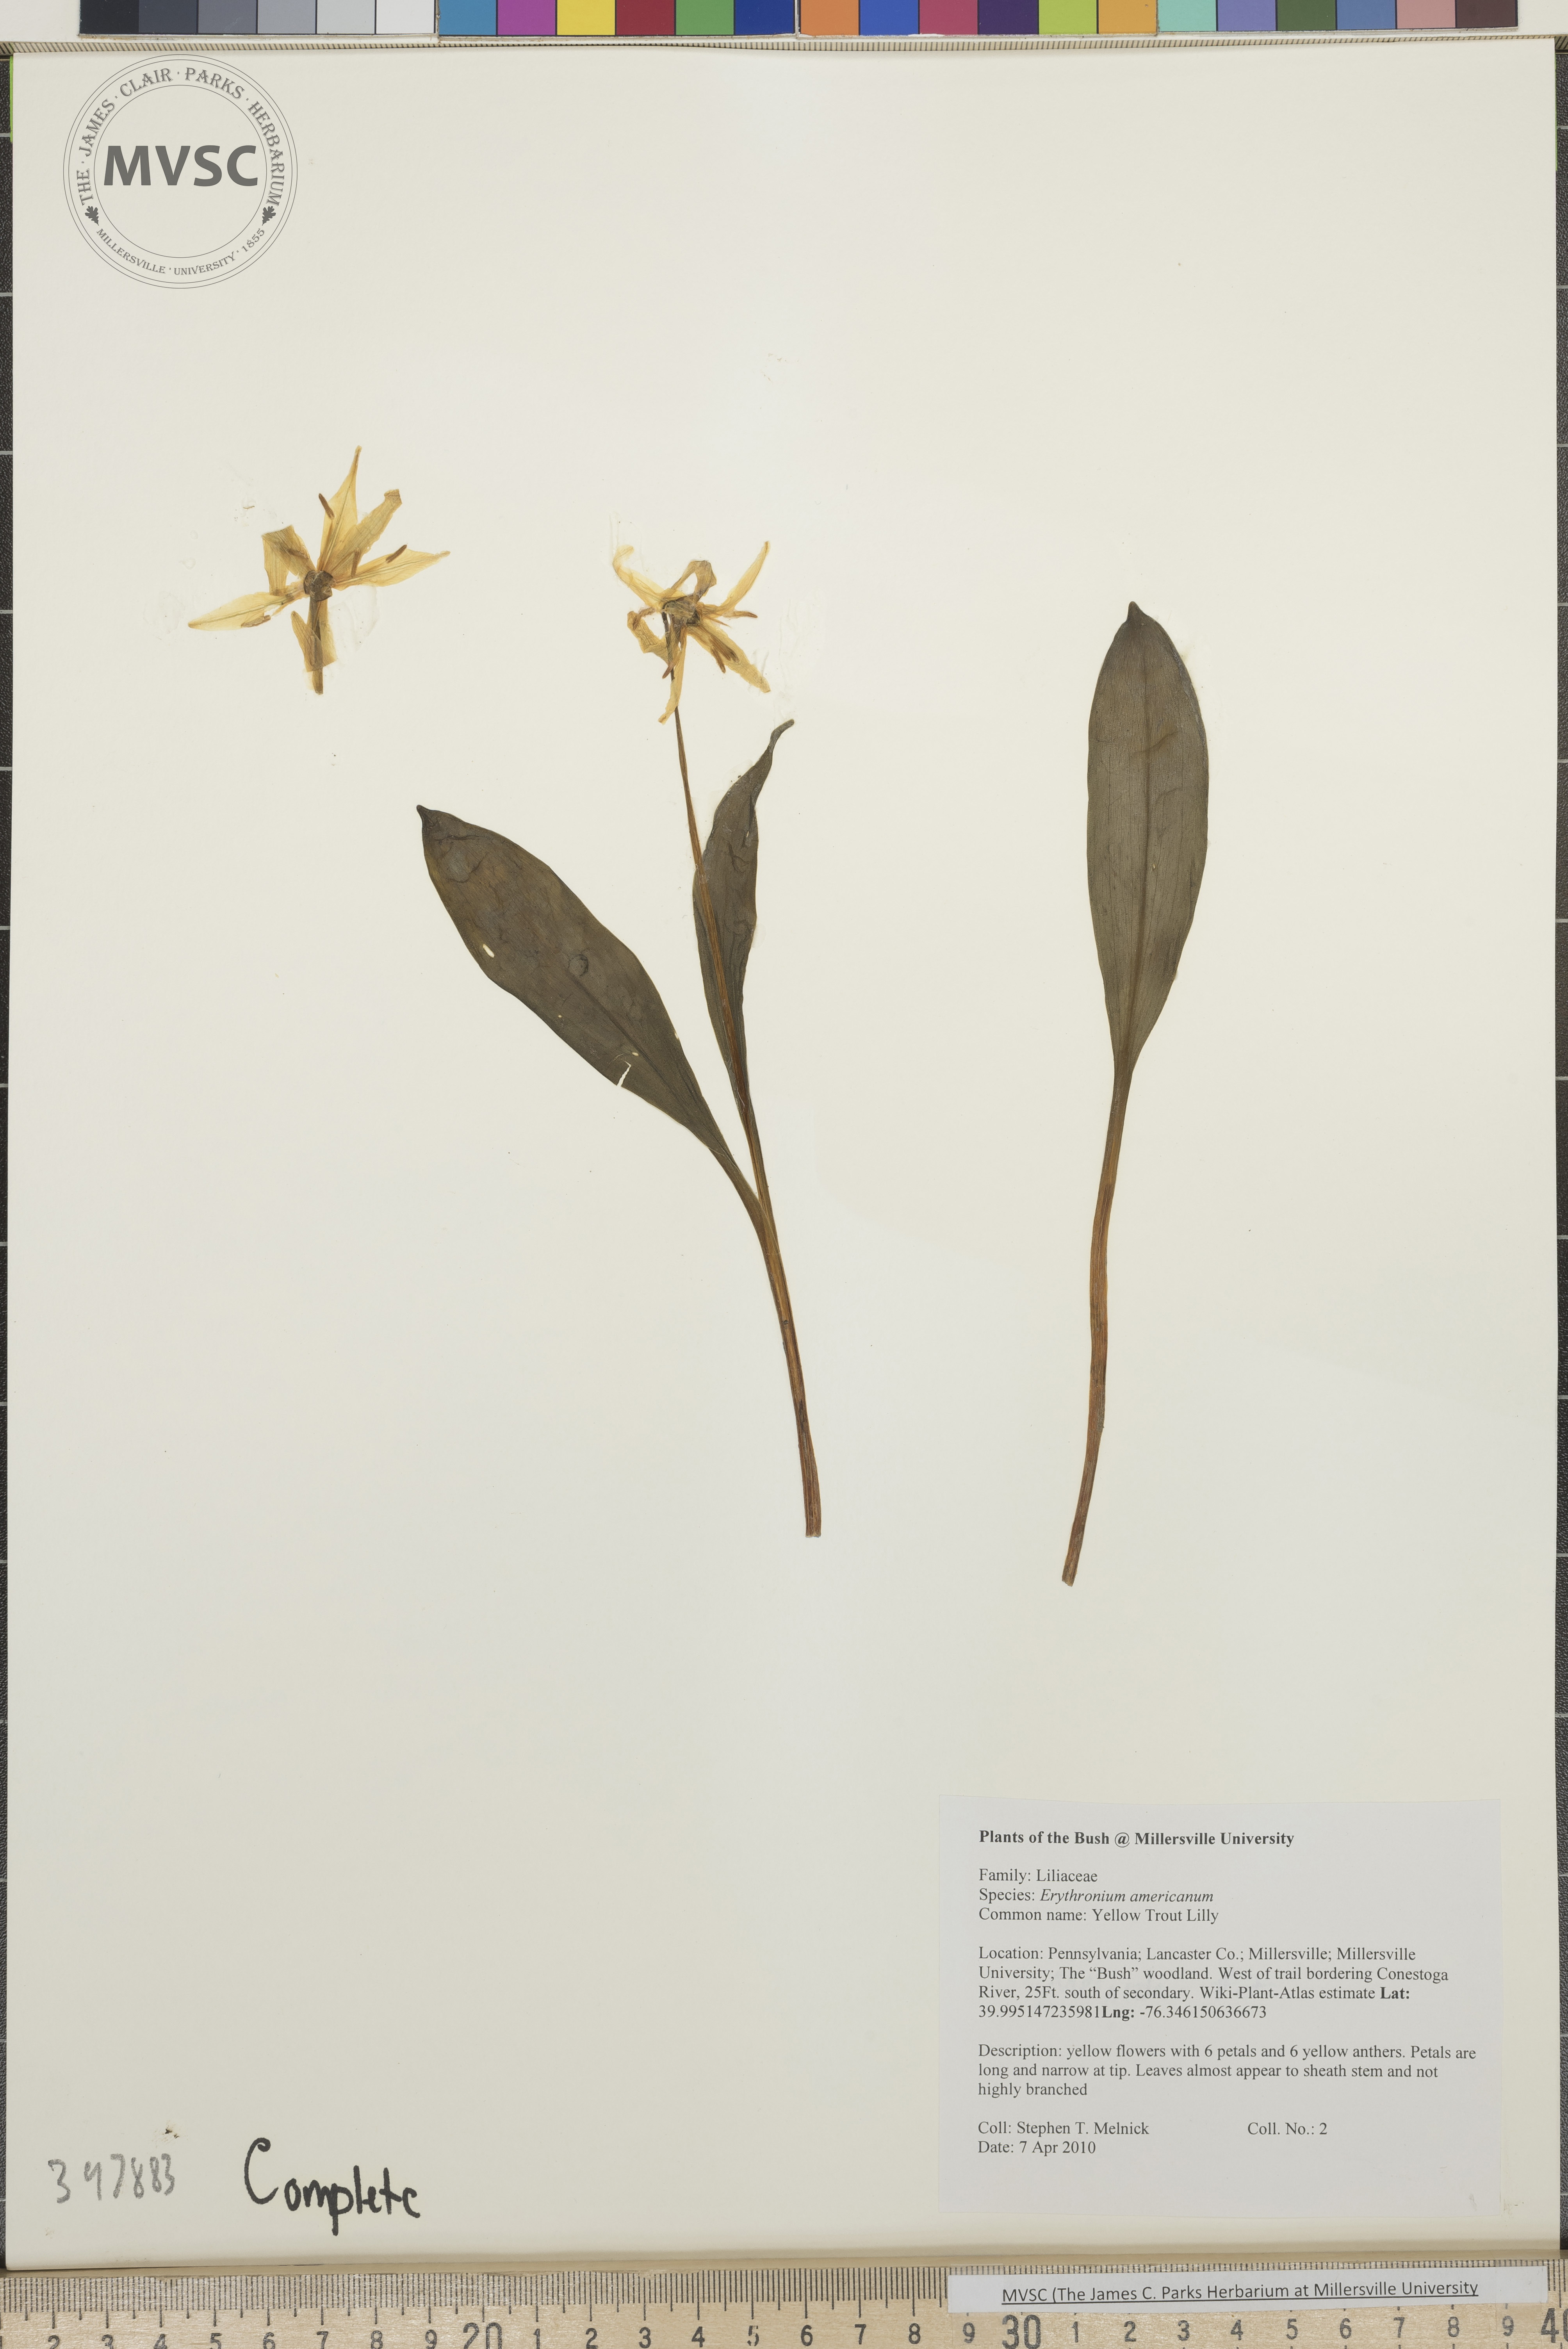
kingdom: Plantae
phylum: Tracheophyta
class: Liliopsida
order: Liliales
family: Liliaceae
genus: Erythronium
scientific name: Erythronium americanum
